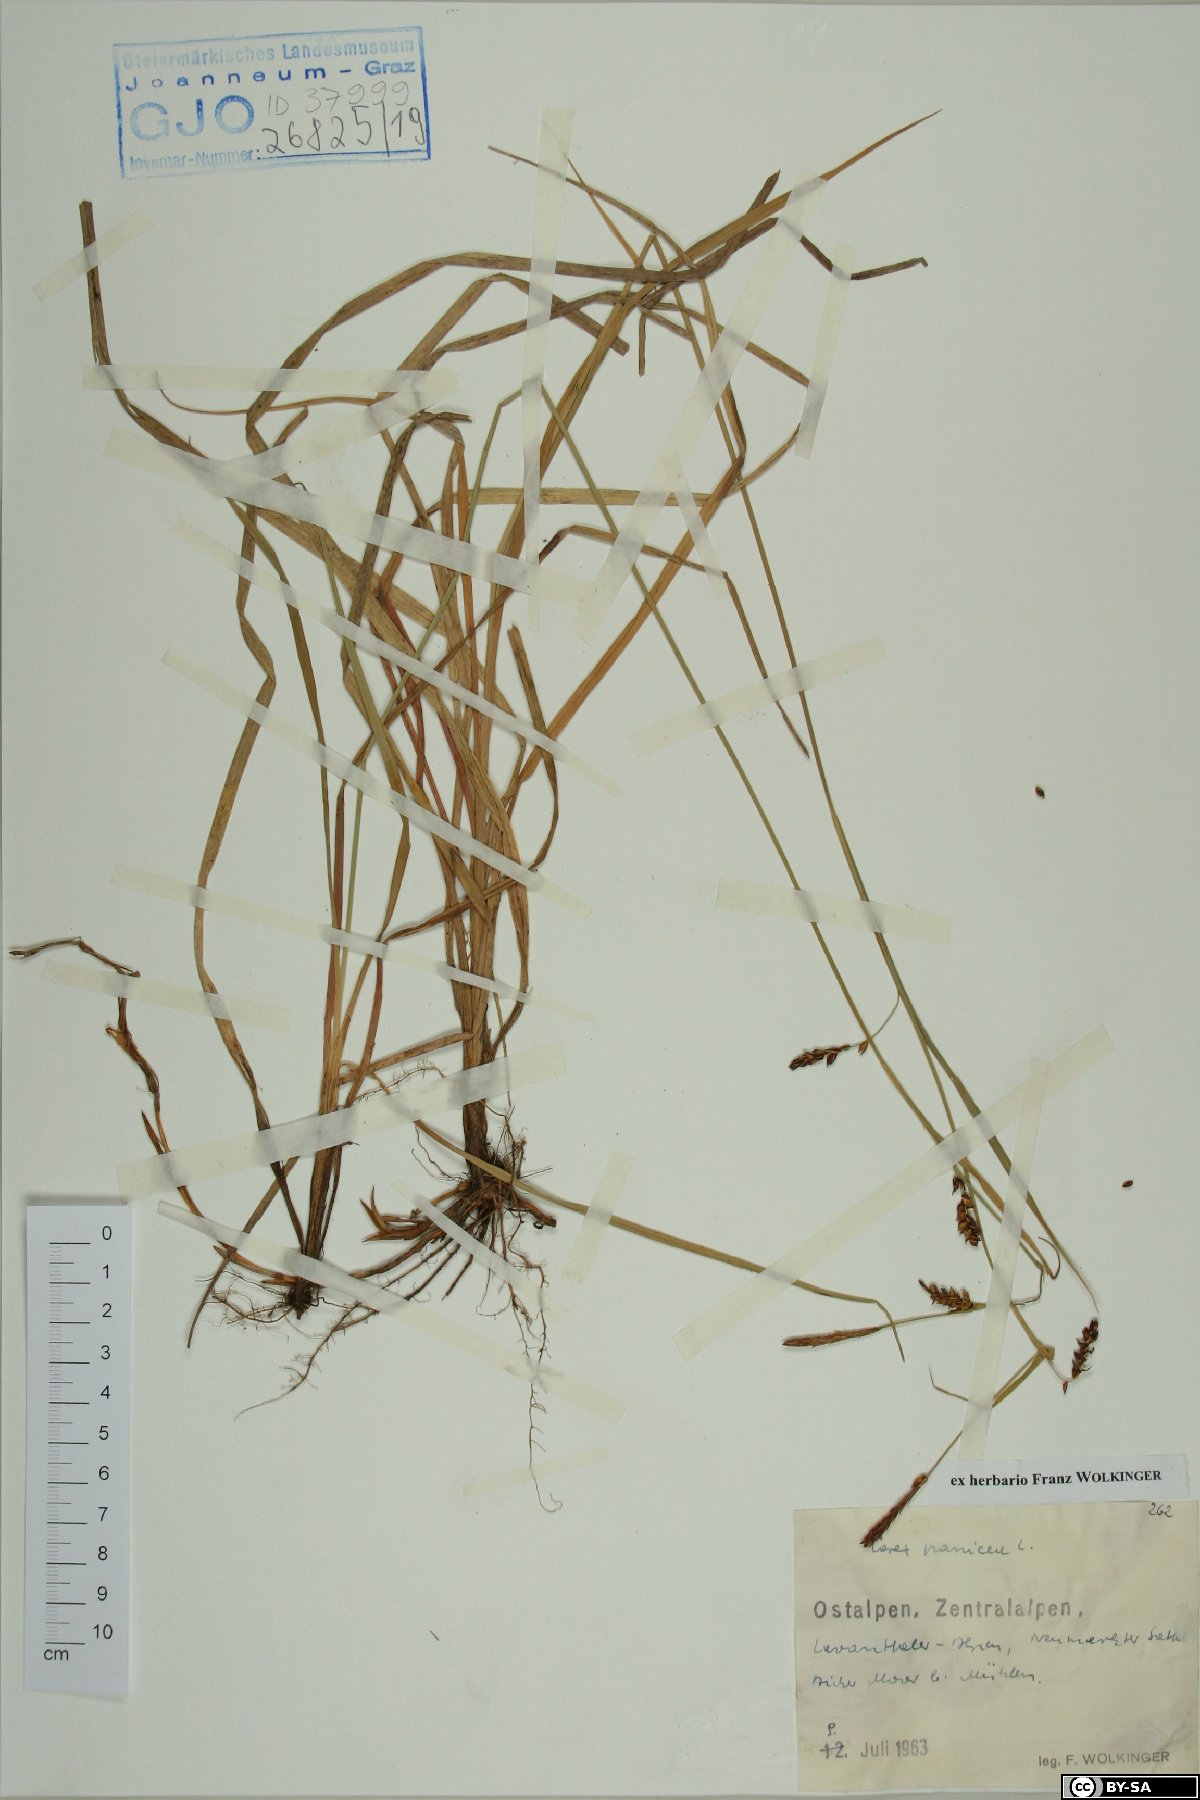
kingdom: Plantae
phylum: Tracheophyta
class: Liliopsida
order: Poales
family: Cyperaceae
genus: Carex
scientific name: Carex panicea
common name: Carnation sedge
